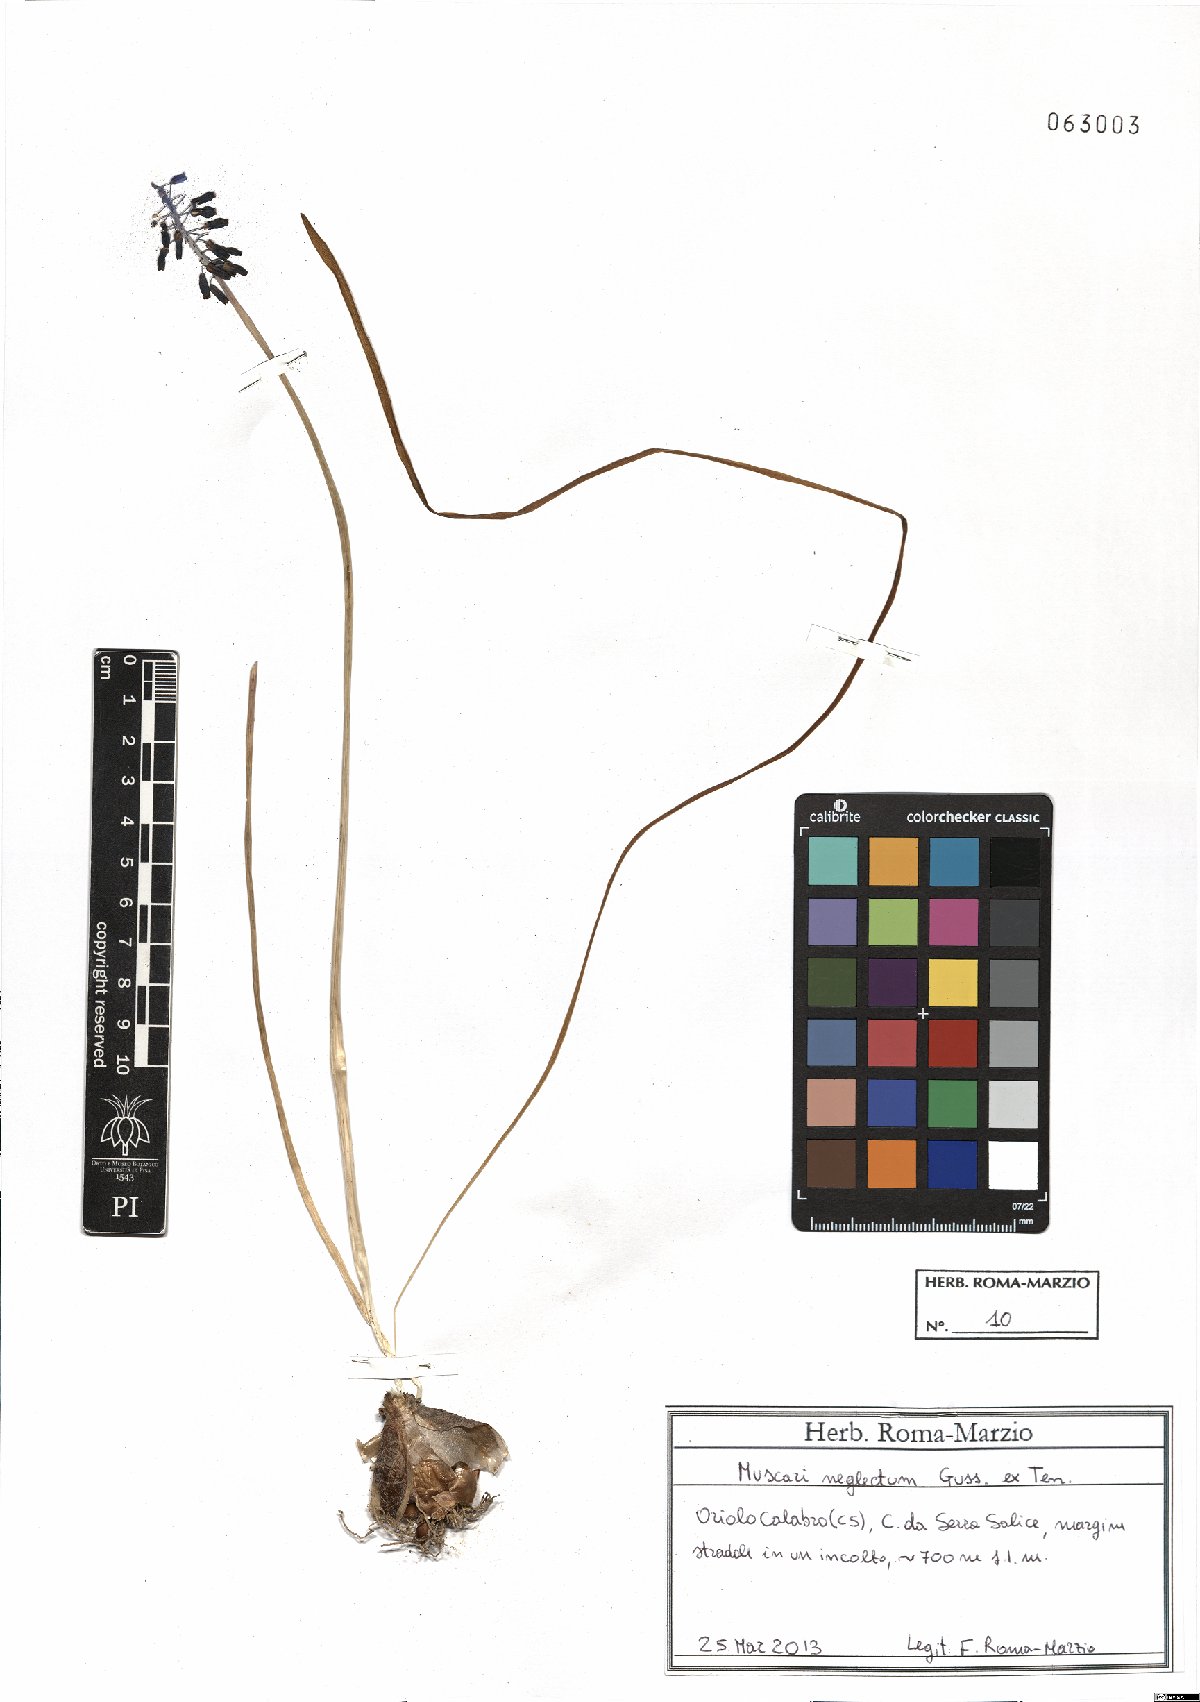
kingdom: Plantae
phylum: Tracheophyta
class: Liliopsida
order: Asparagales
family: Asparagaceae
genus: Muscari
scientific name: Muscari neglectum
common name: Grape-hyacinth
